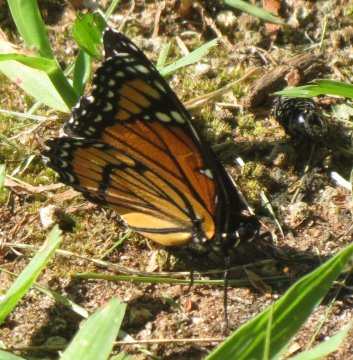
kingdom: Animalia
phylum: Arthropoda
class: Insecta
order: Lepidoptera
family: Nymphalidae
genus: Limenitis
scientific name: Limenitis archippus
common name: Viceroy
